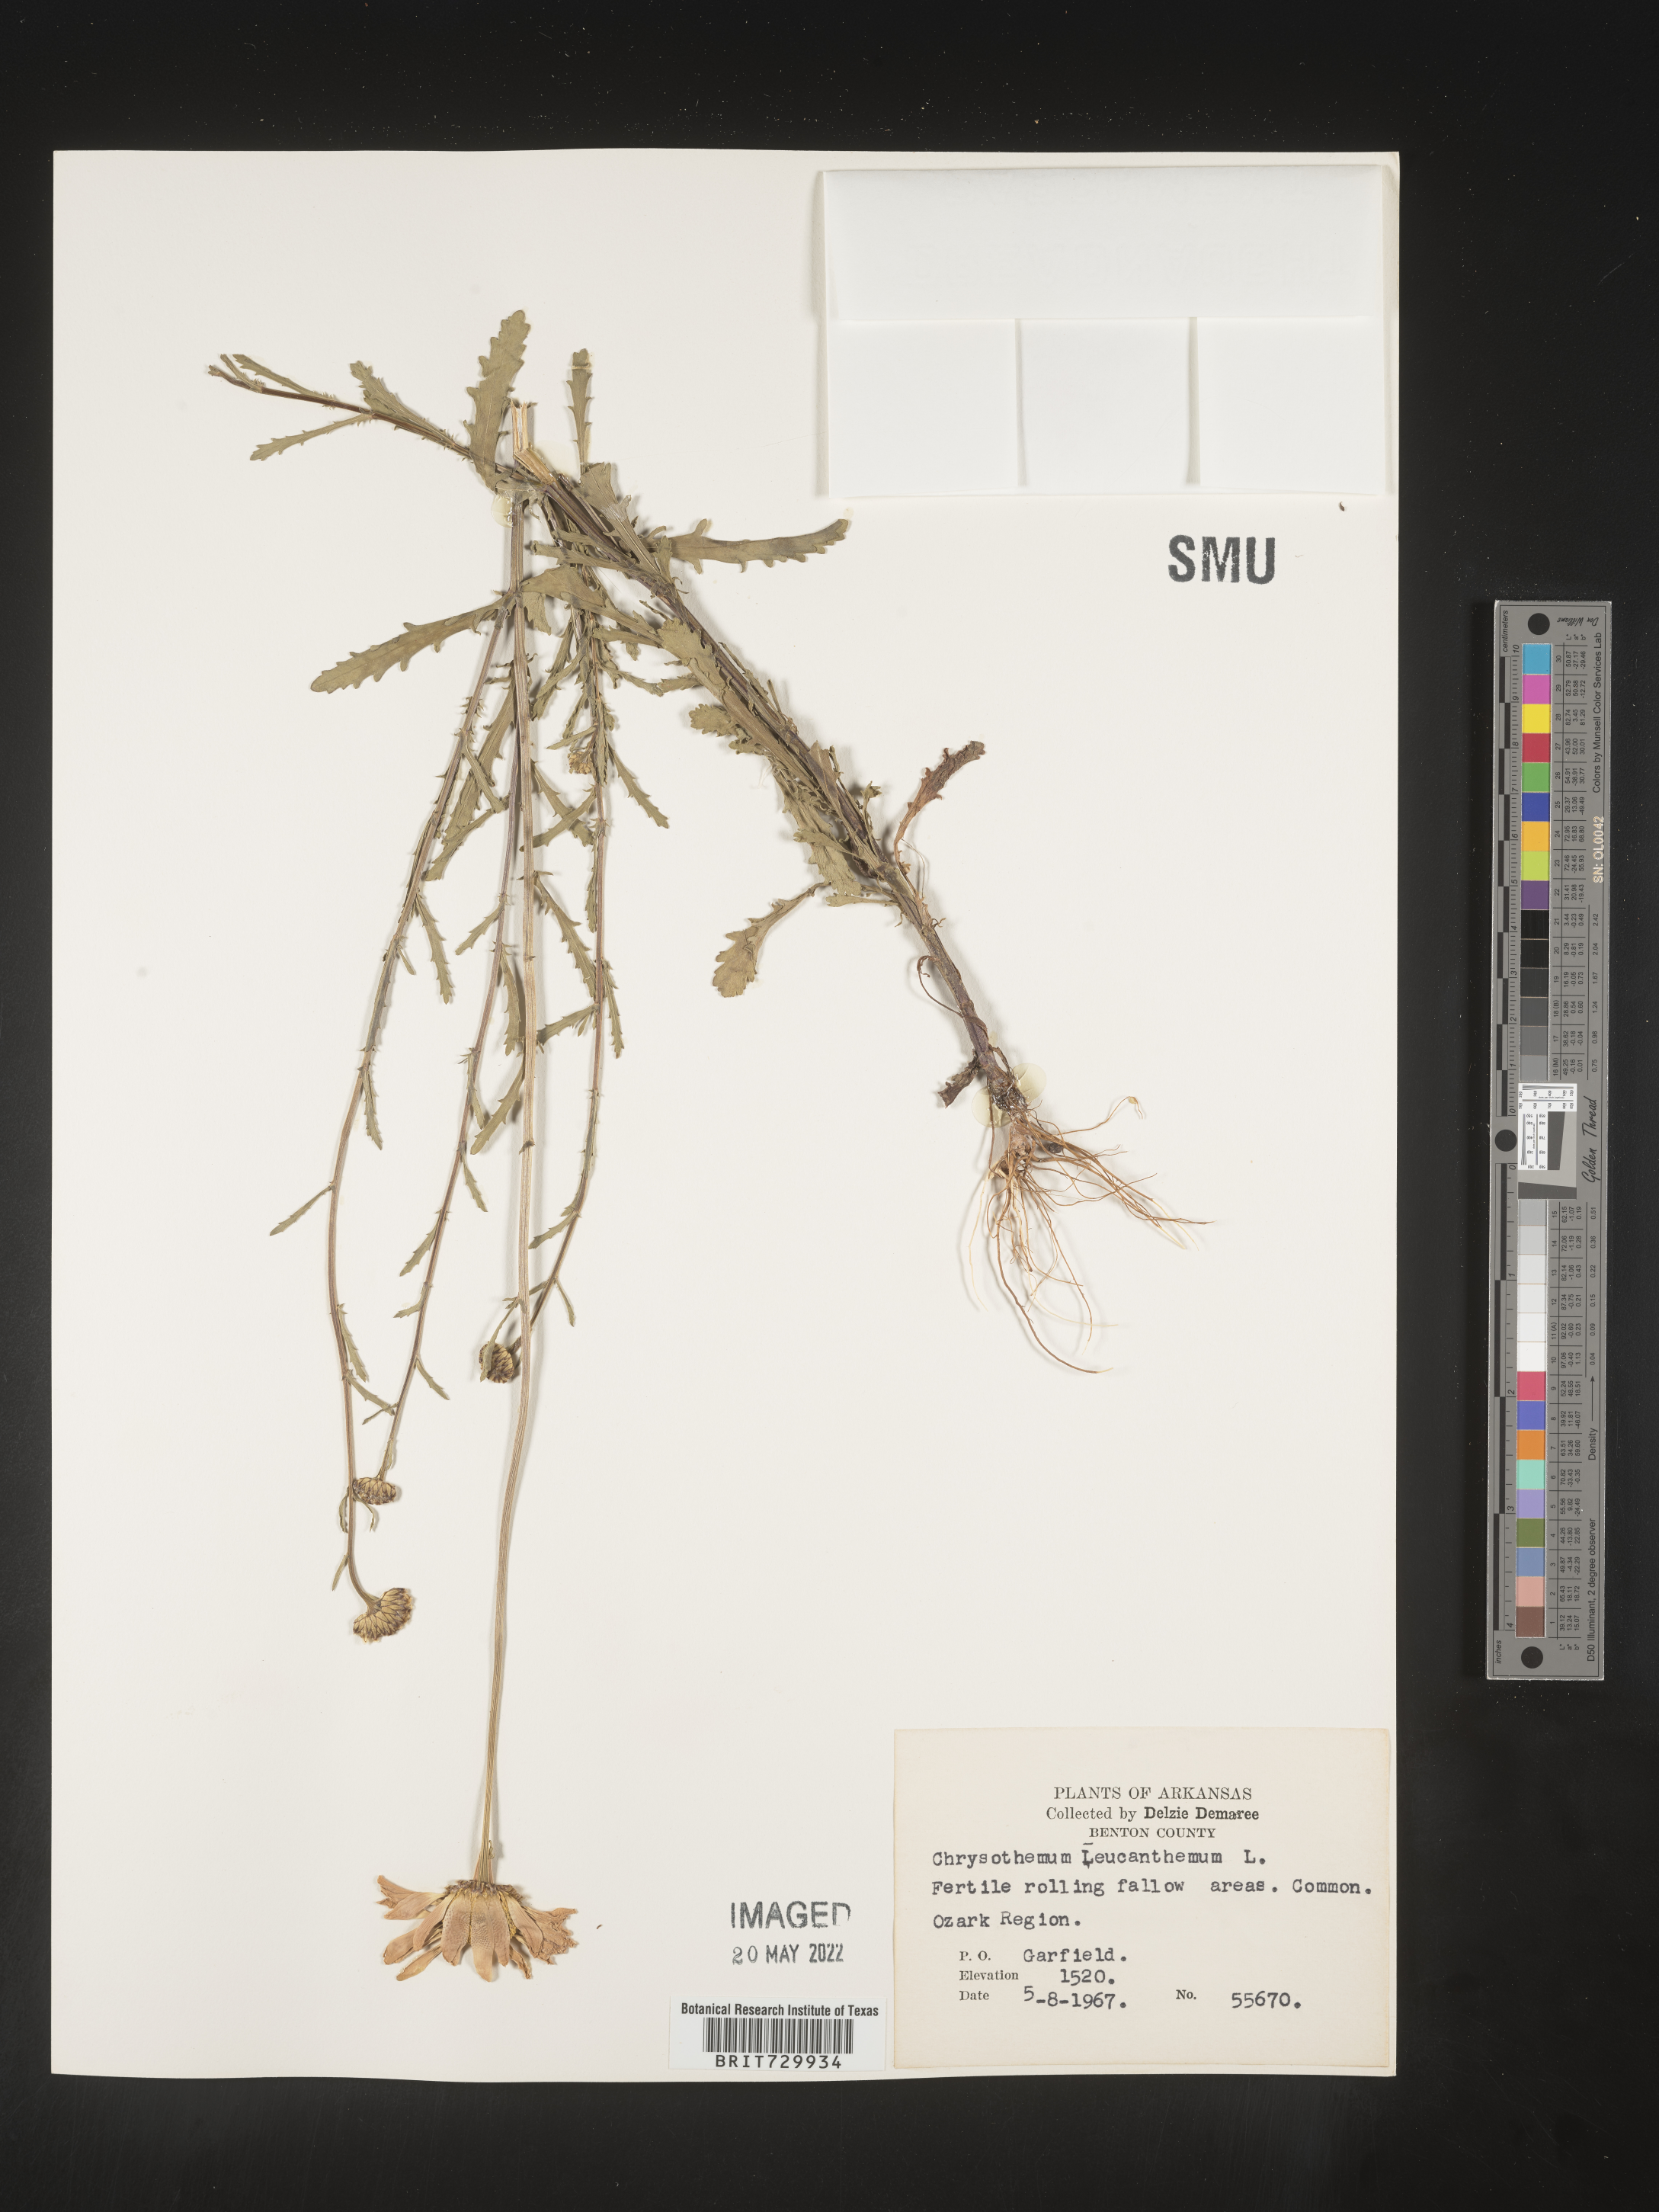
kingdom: Plantae
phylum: Tracheophyta
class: Magnoliopsida
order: Asterales
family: Asteraceae
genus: Leucanthemum
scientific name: Leucanthemum vulgare
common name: Oxeye daisy
